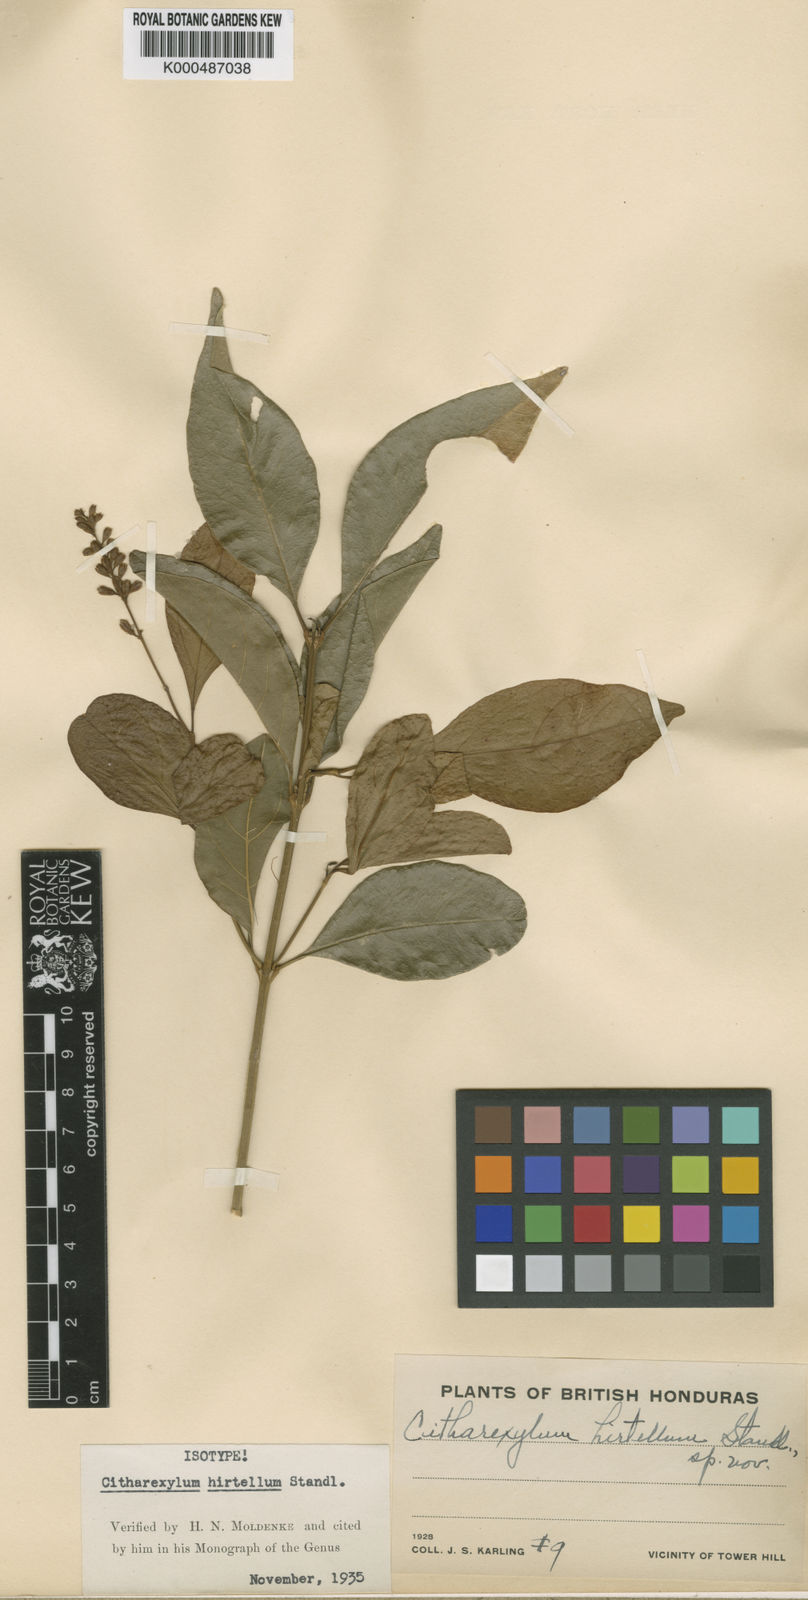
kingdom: Plantae
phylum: Tracheophyta
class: Magnoliopsida
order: Lamiales
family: Verbenaceae
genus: Citharexylum
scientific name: Citharexylum hirtellum
